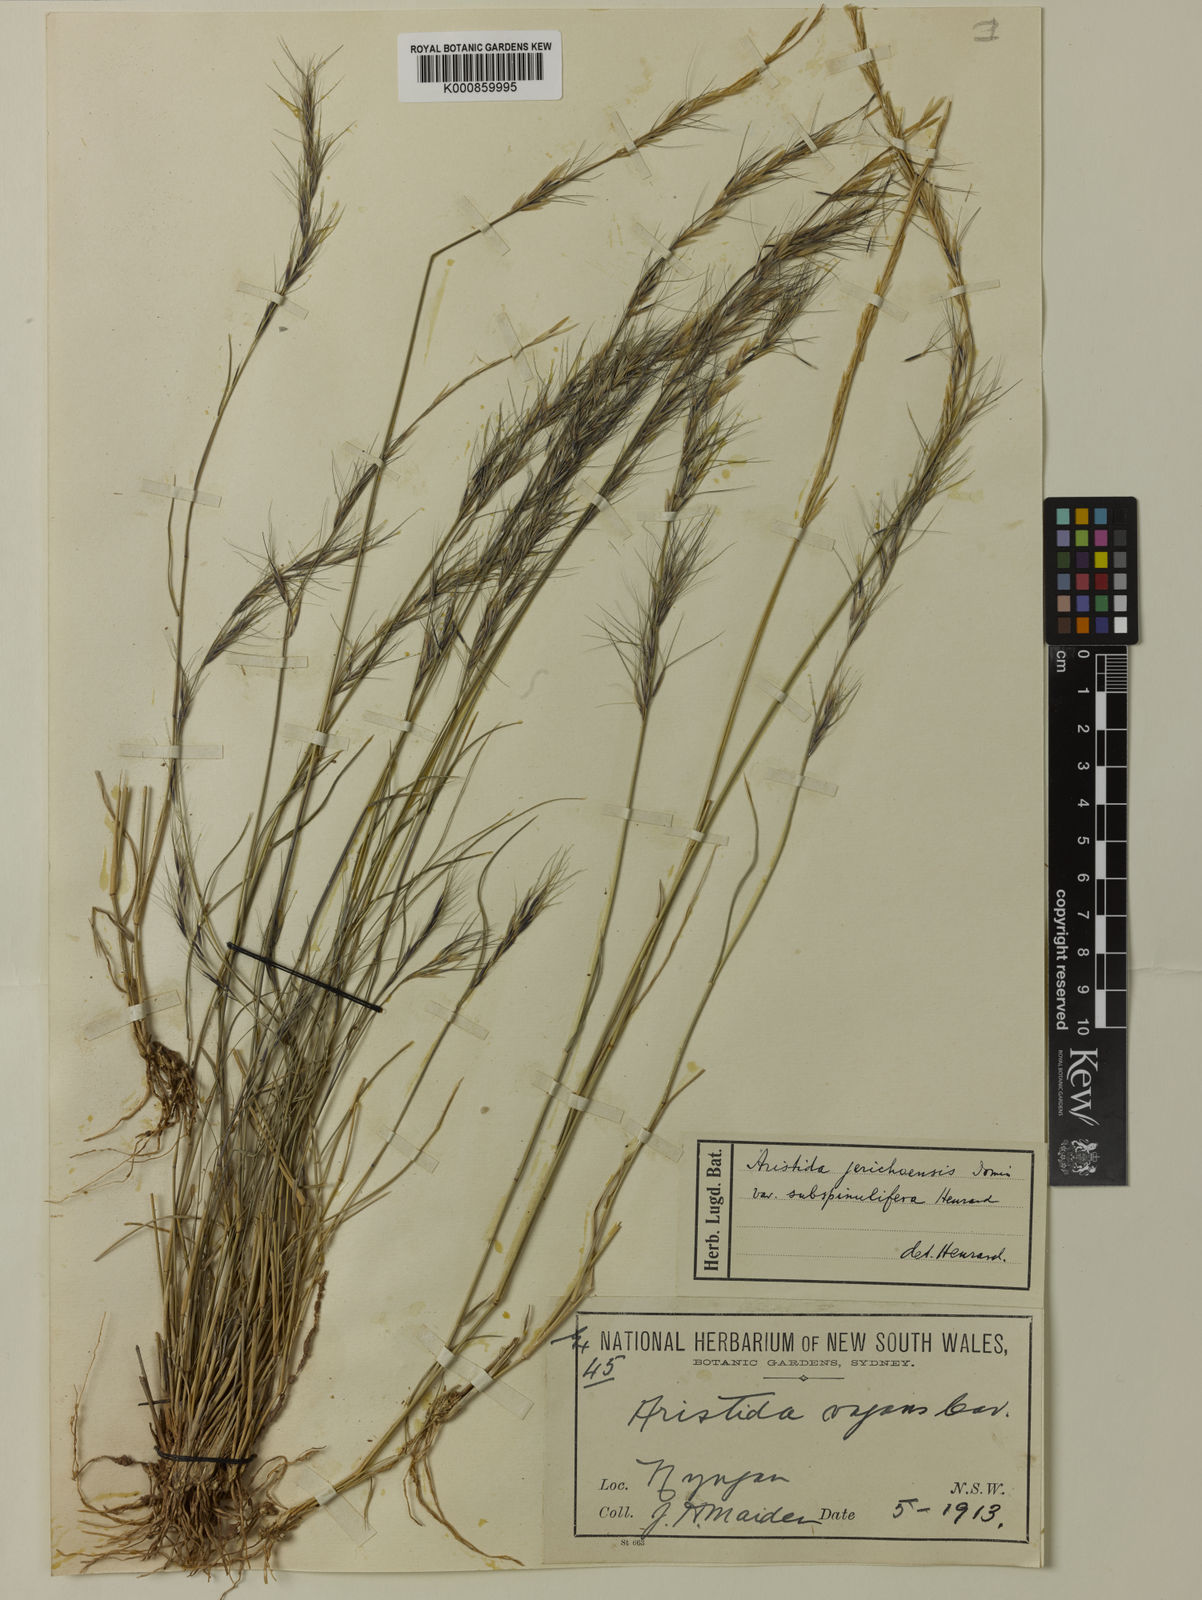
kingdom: Plantae
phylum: Tracheophyta
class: Liliopsida
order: Poales
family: Poaceae
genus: Aristida
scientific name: Aristida jerichoensis
